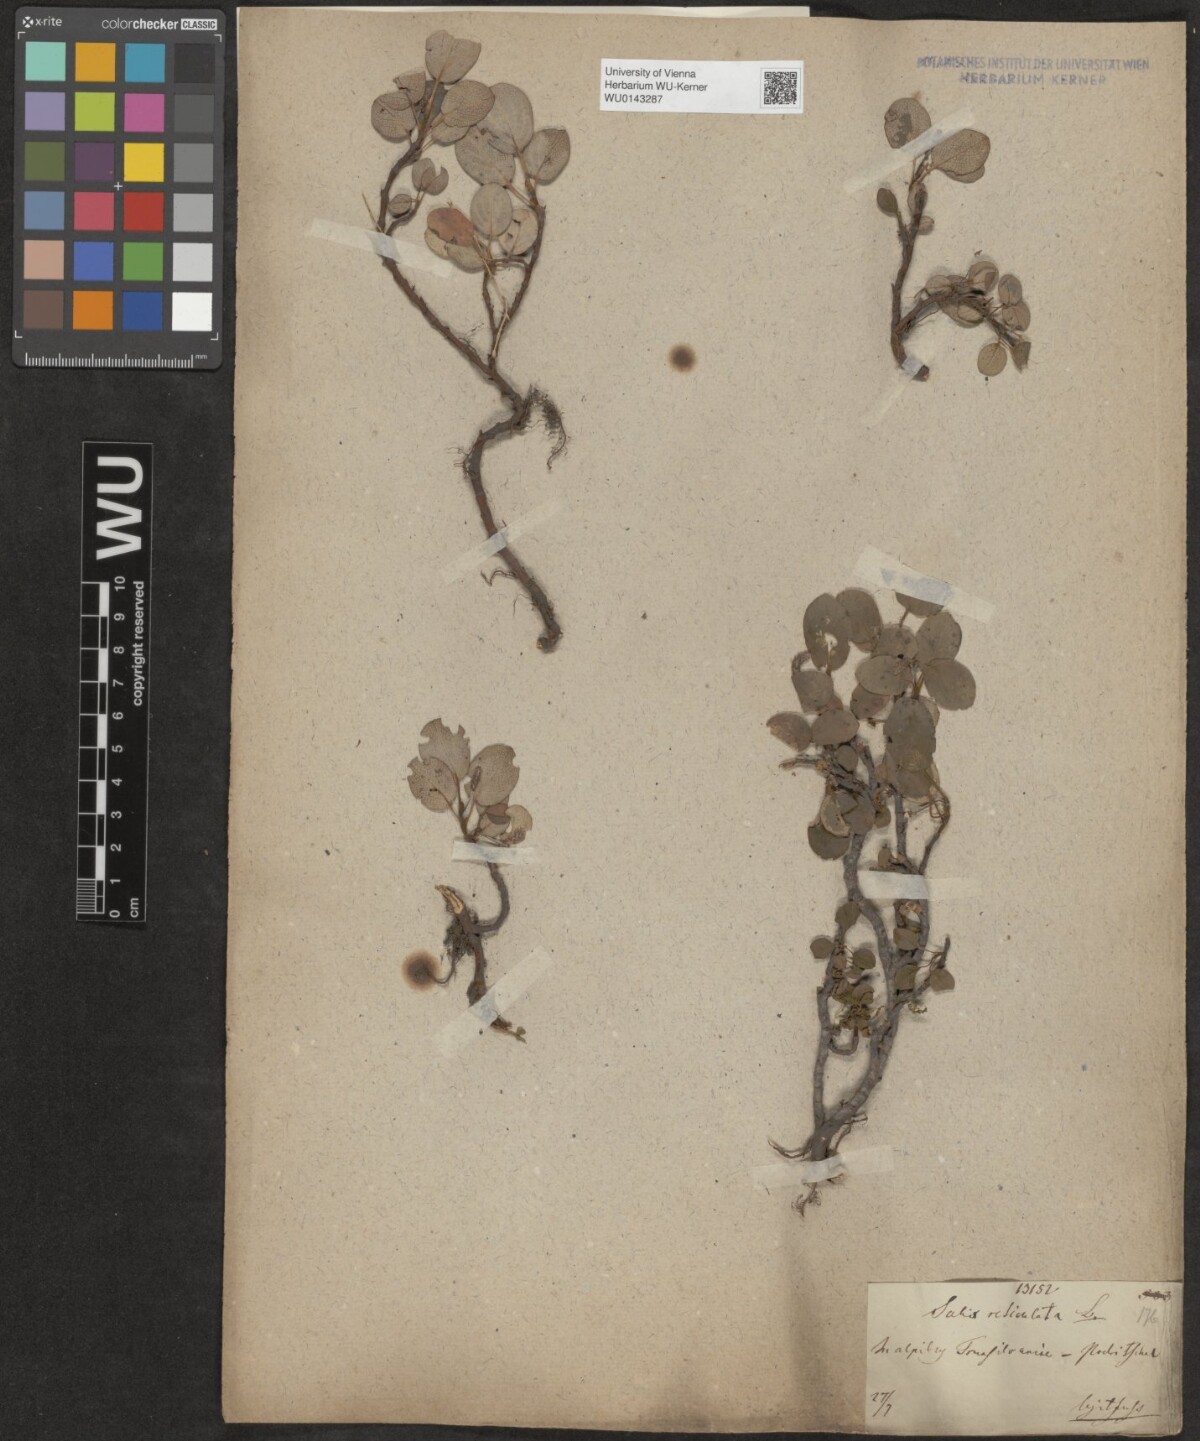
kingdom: Plantae
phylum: Tracheophyta
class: Magnoliopsida
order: Malpighiales
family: Salicaceae
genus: Salix
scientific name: Salix reticulata
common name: Net-leaved willow
